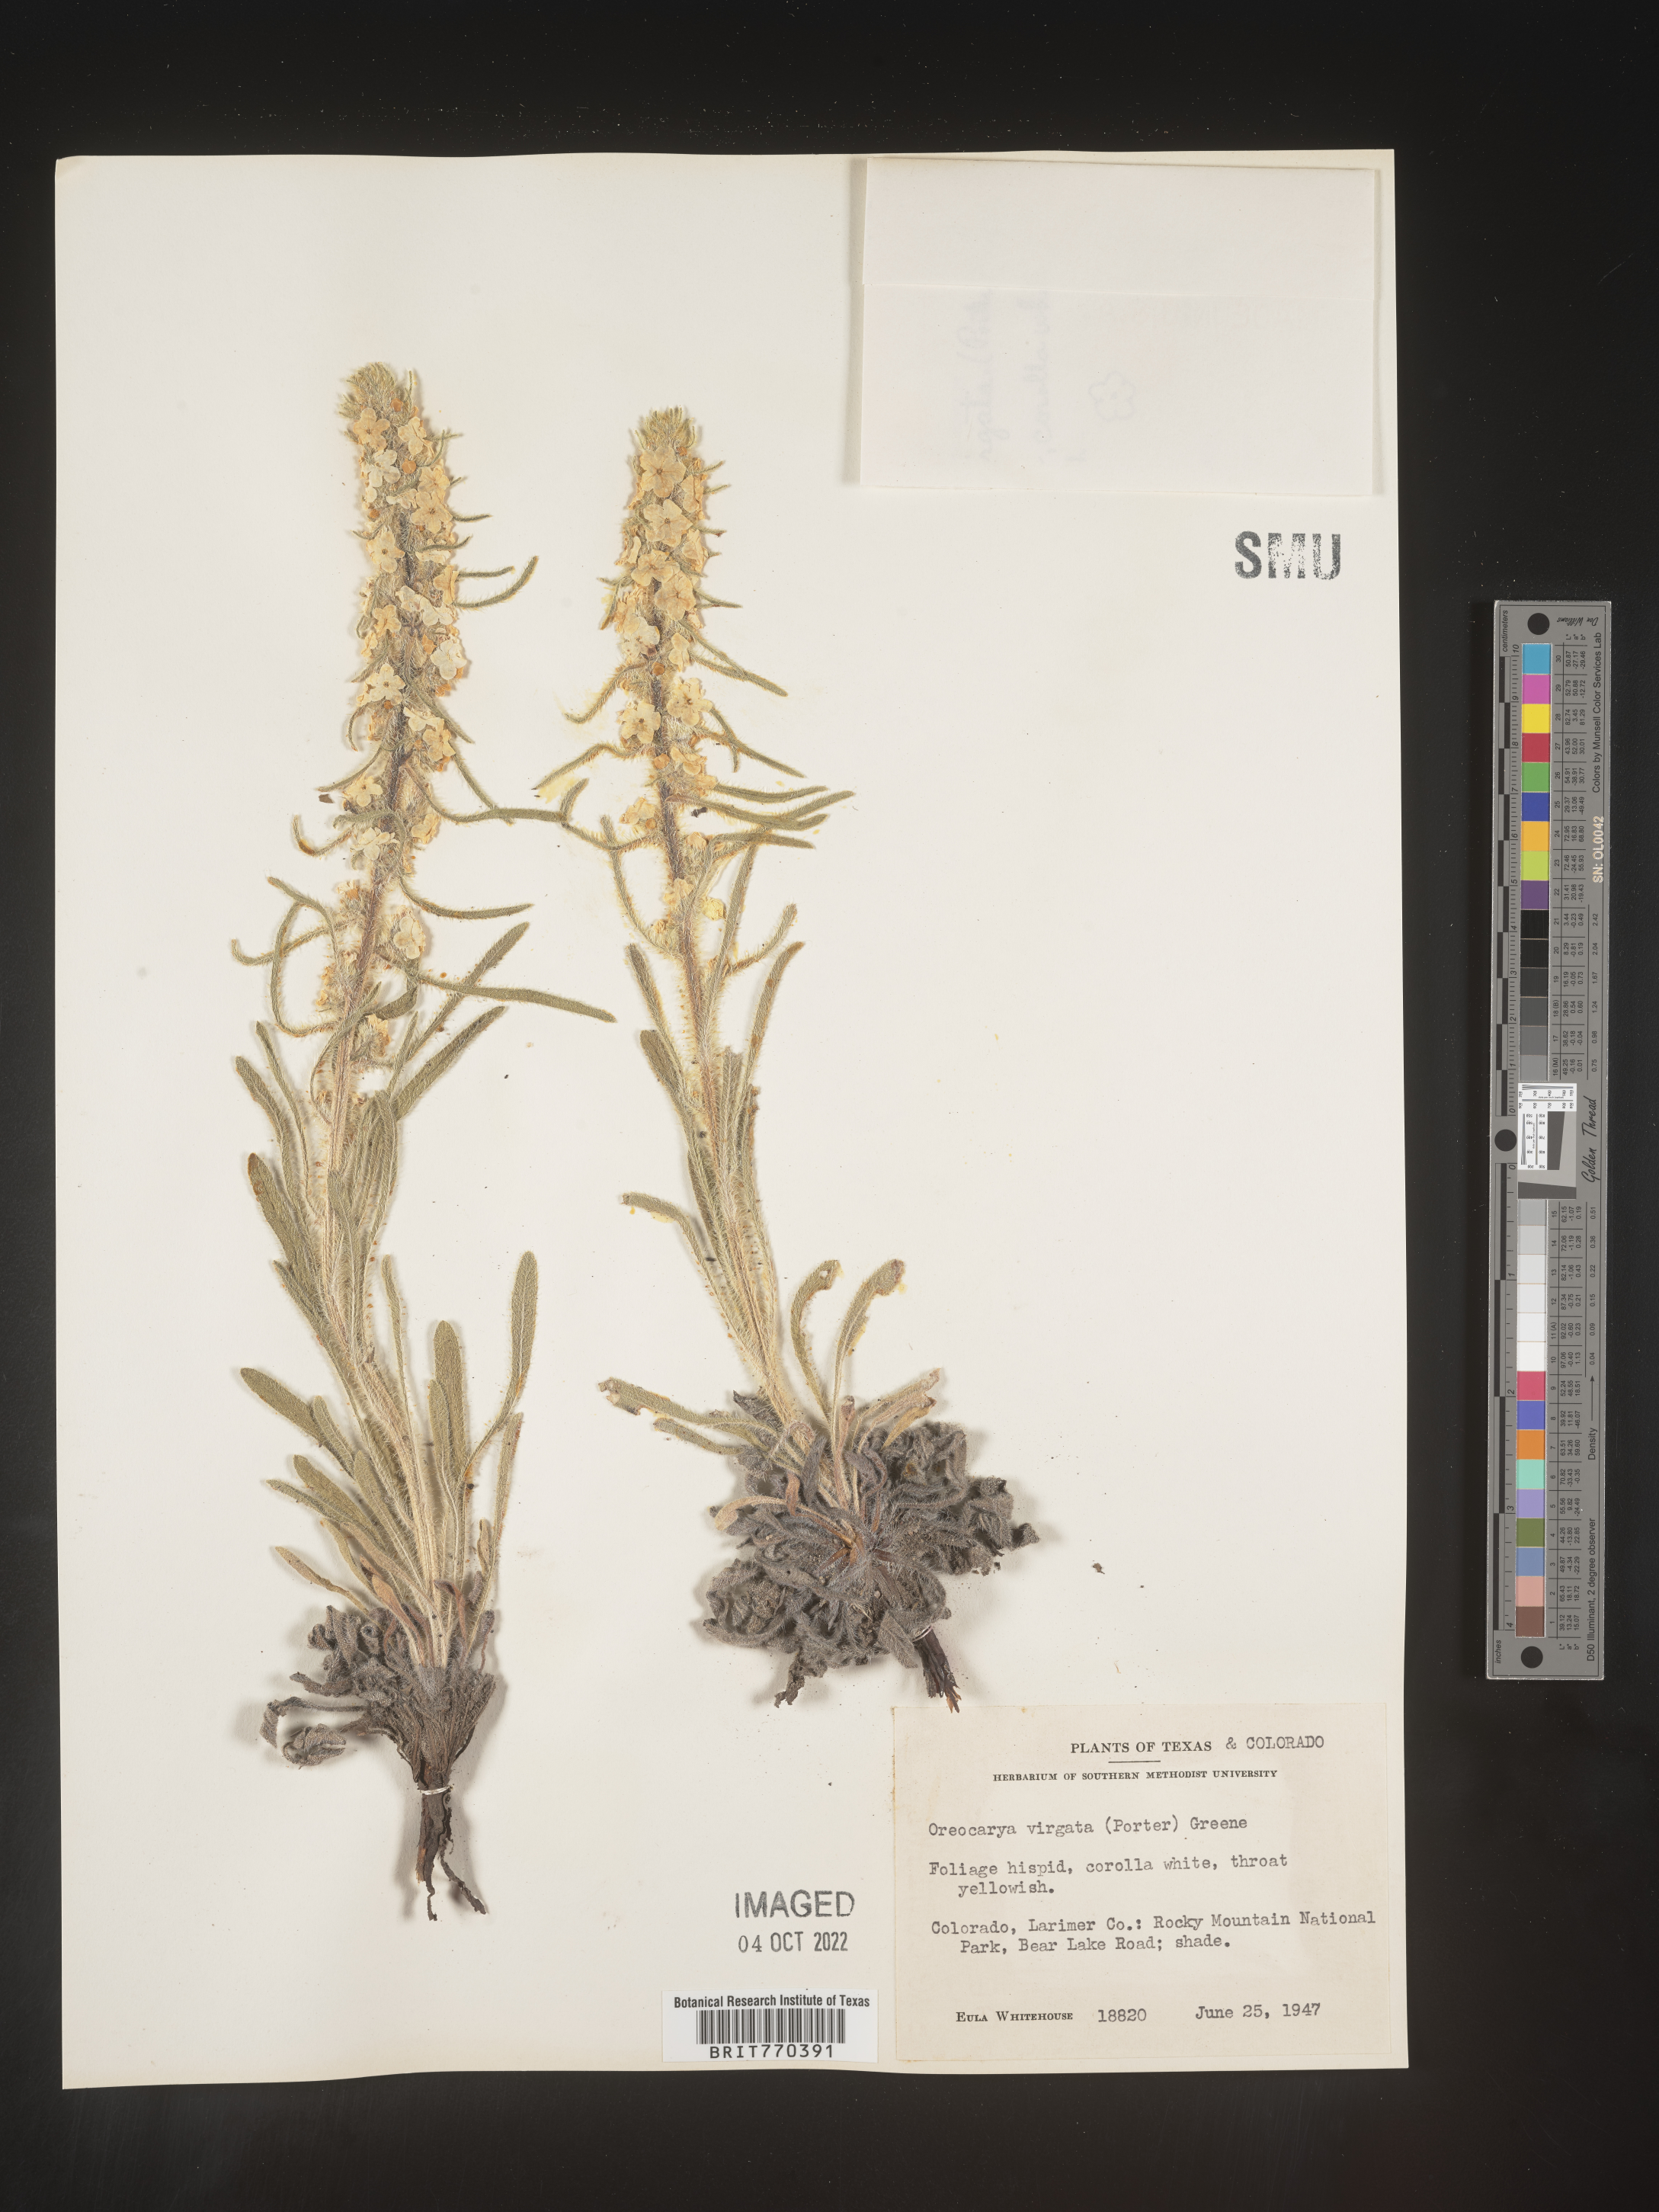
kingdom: Plantae
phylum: Tracheophyta
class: Magnoliopsida
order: Boraginales
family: Boraginaceae
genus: Oreocarya
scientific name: Oreocarya
